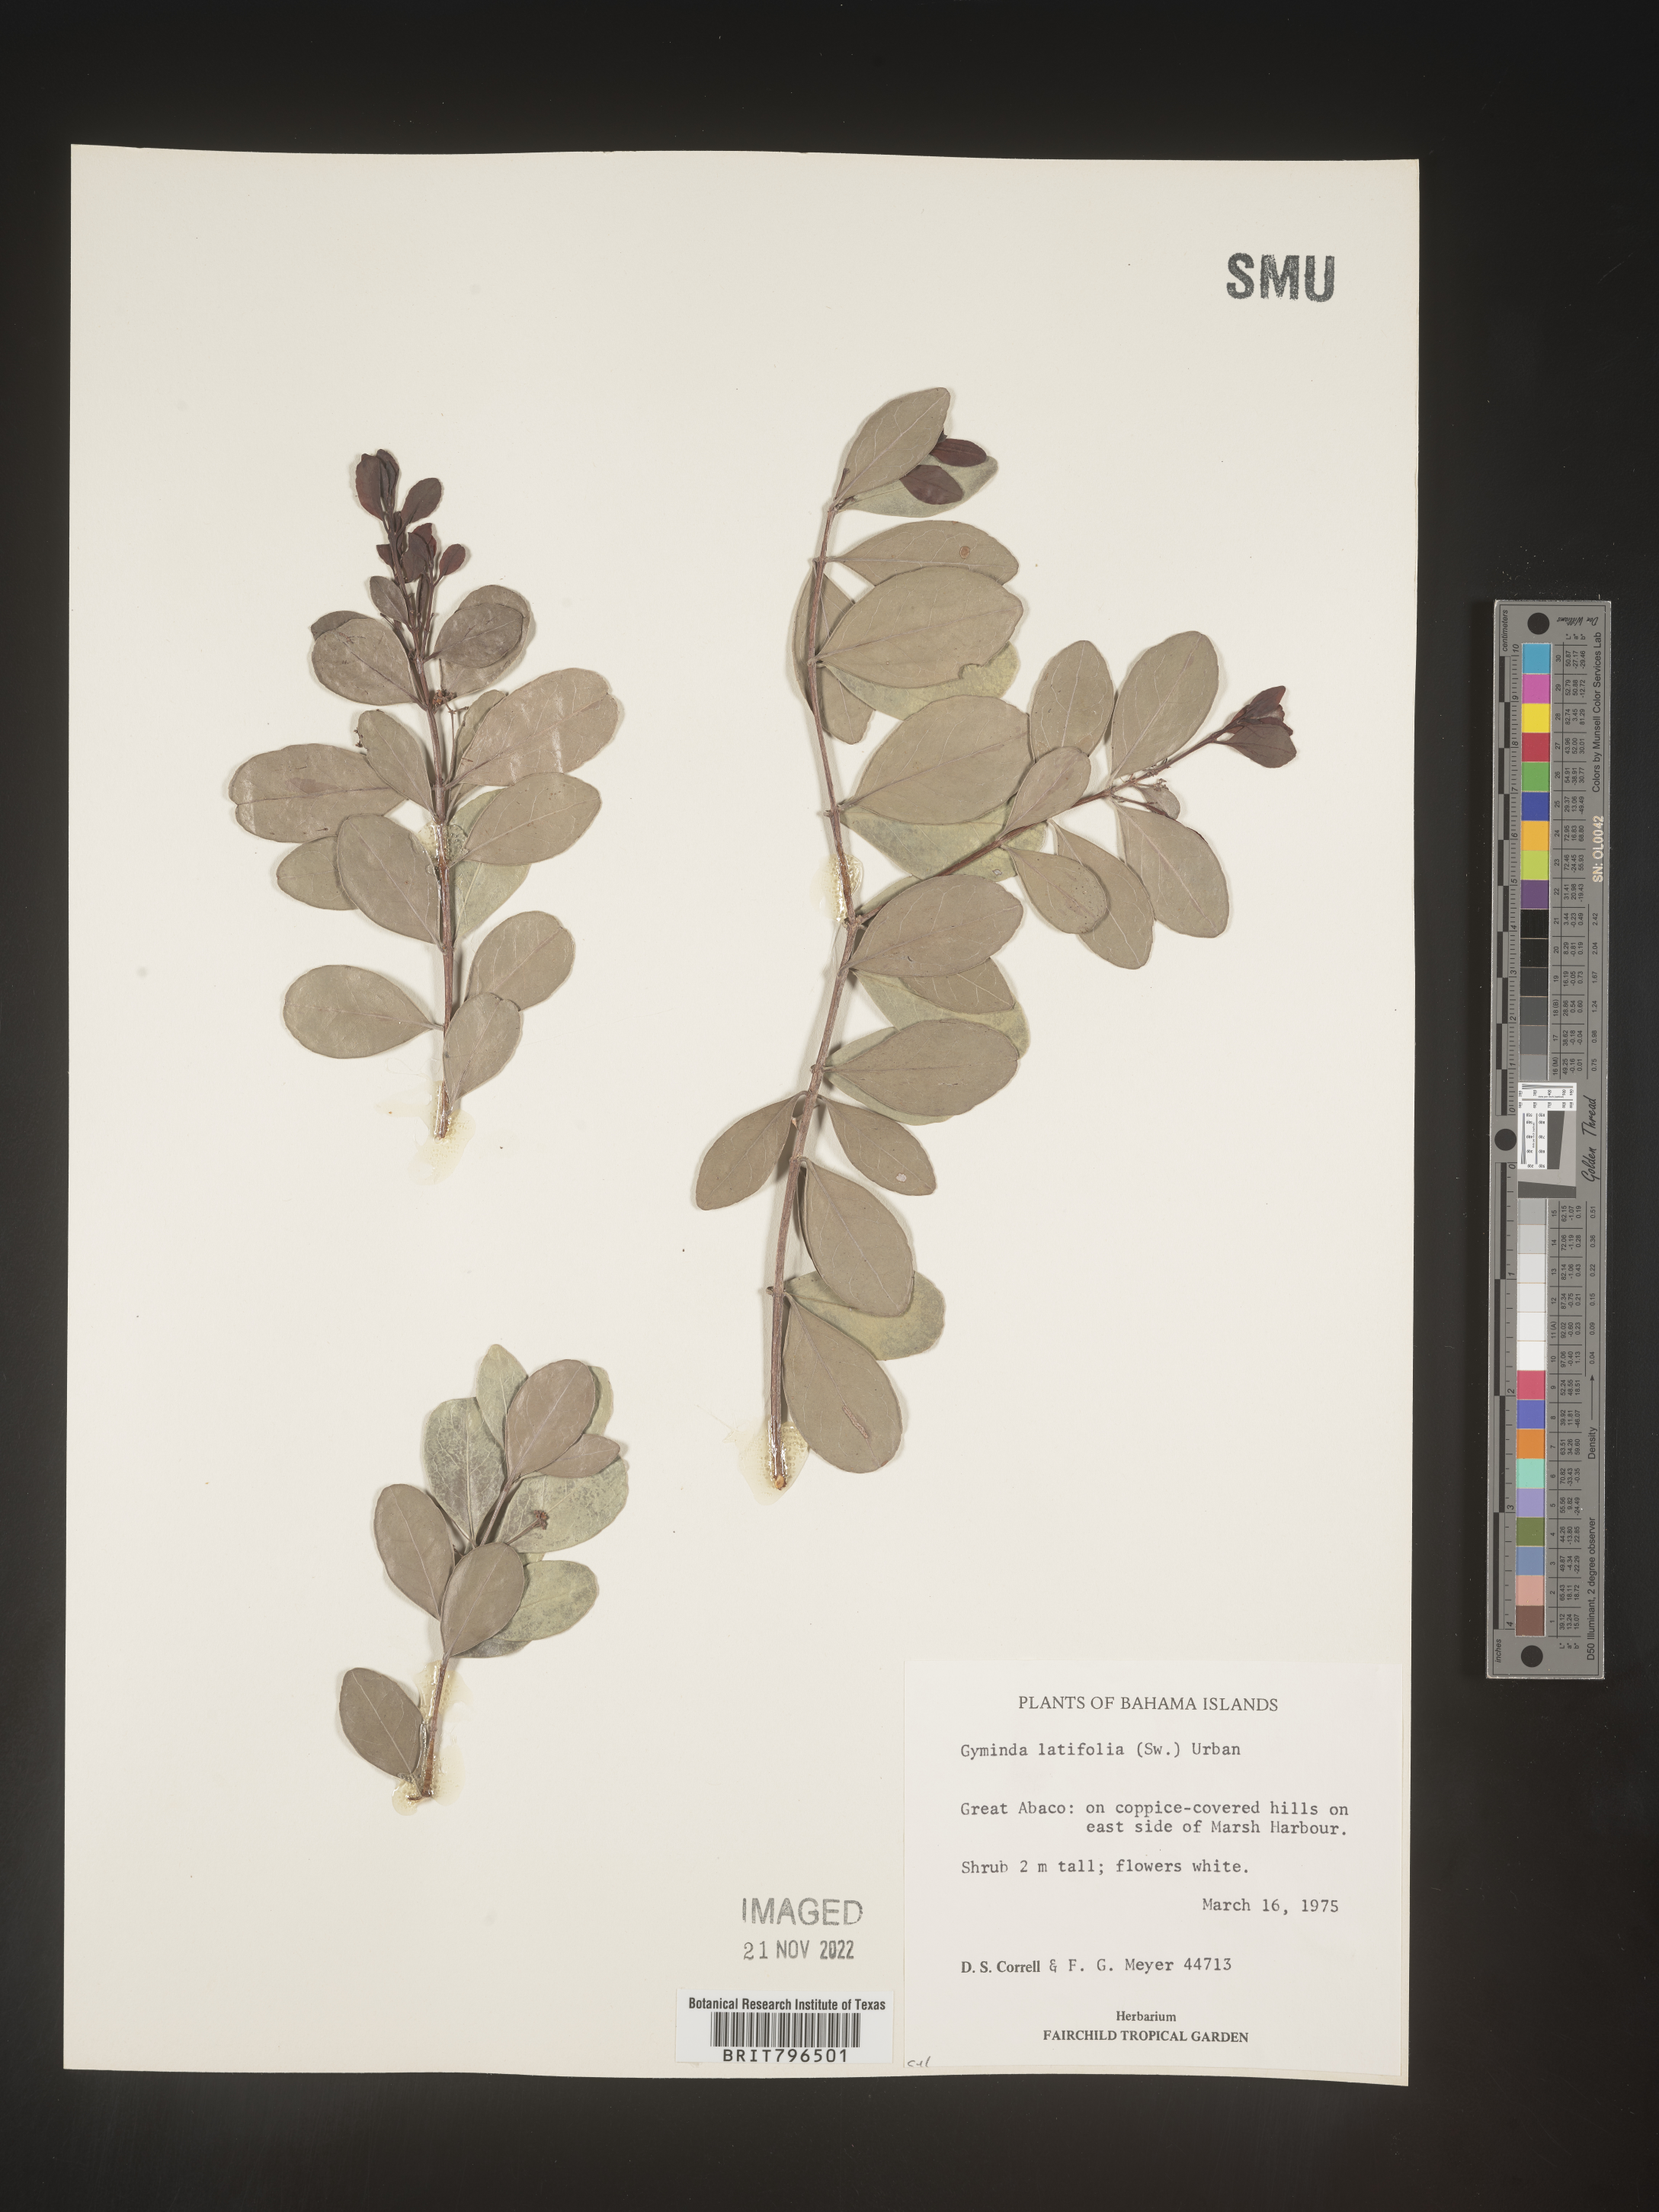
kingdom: Plantae
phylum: Tracheophyta
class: Magnoliopsida
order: Celastrales
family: Celastraceae
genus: Gyminda
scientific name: Gyminda
